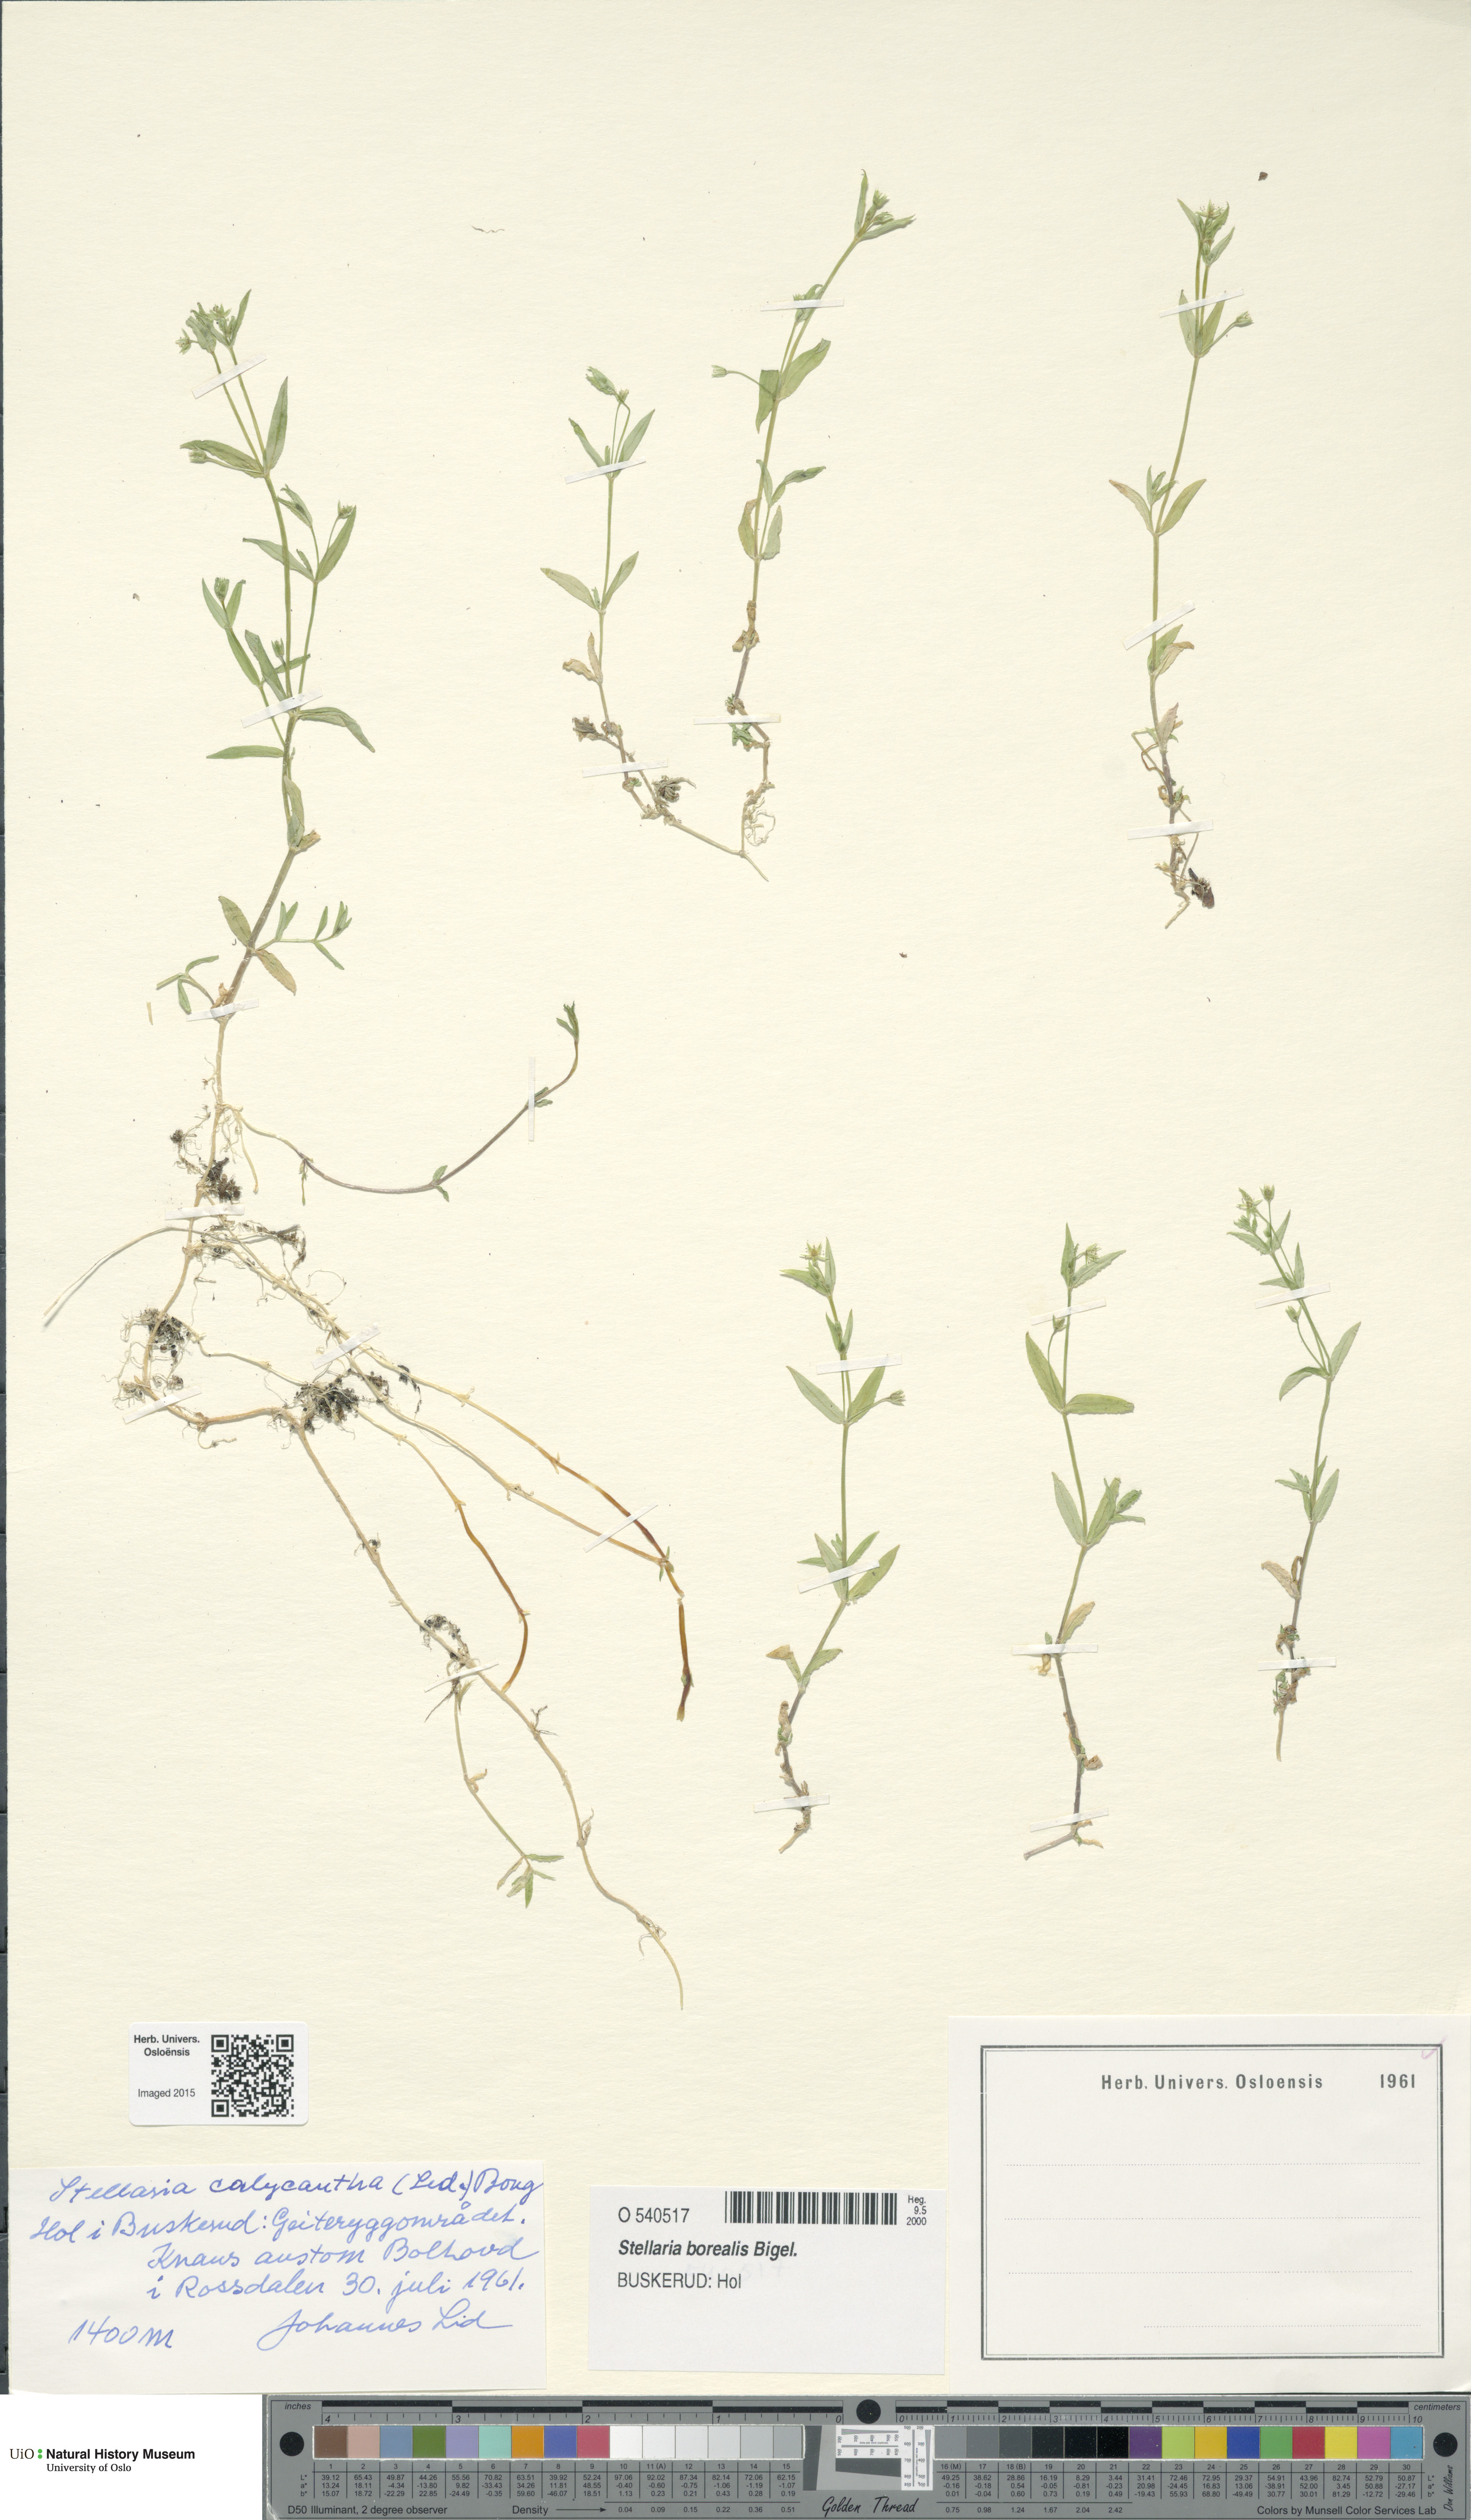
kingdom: Plantae
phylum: Tracheophyta
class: Magnoliopsida
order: Caryophyllales
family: Caryophyllaceae
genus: Stellaria
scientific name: Stellaria borealis
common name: Boreal starwort
